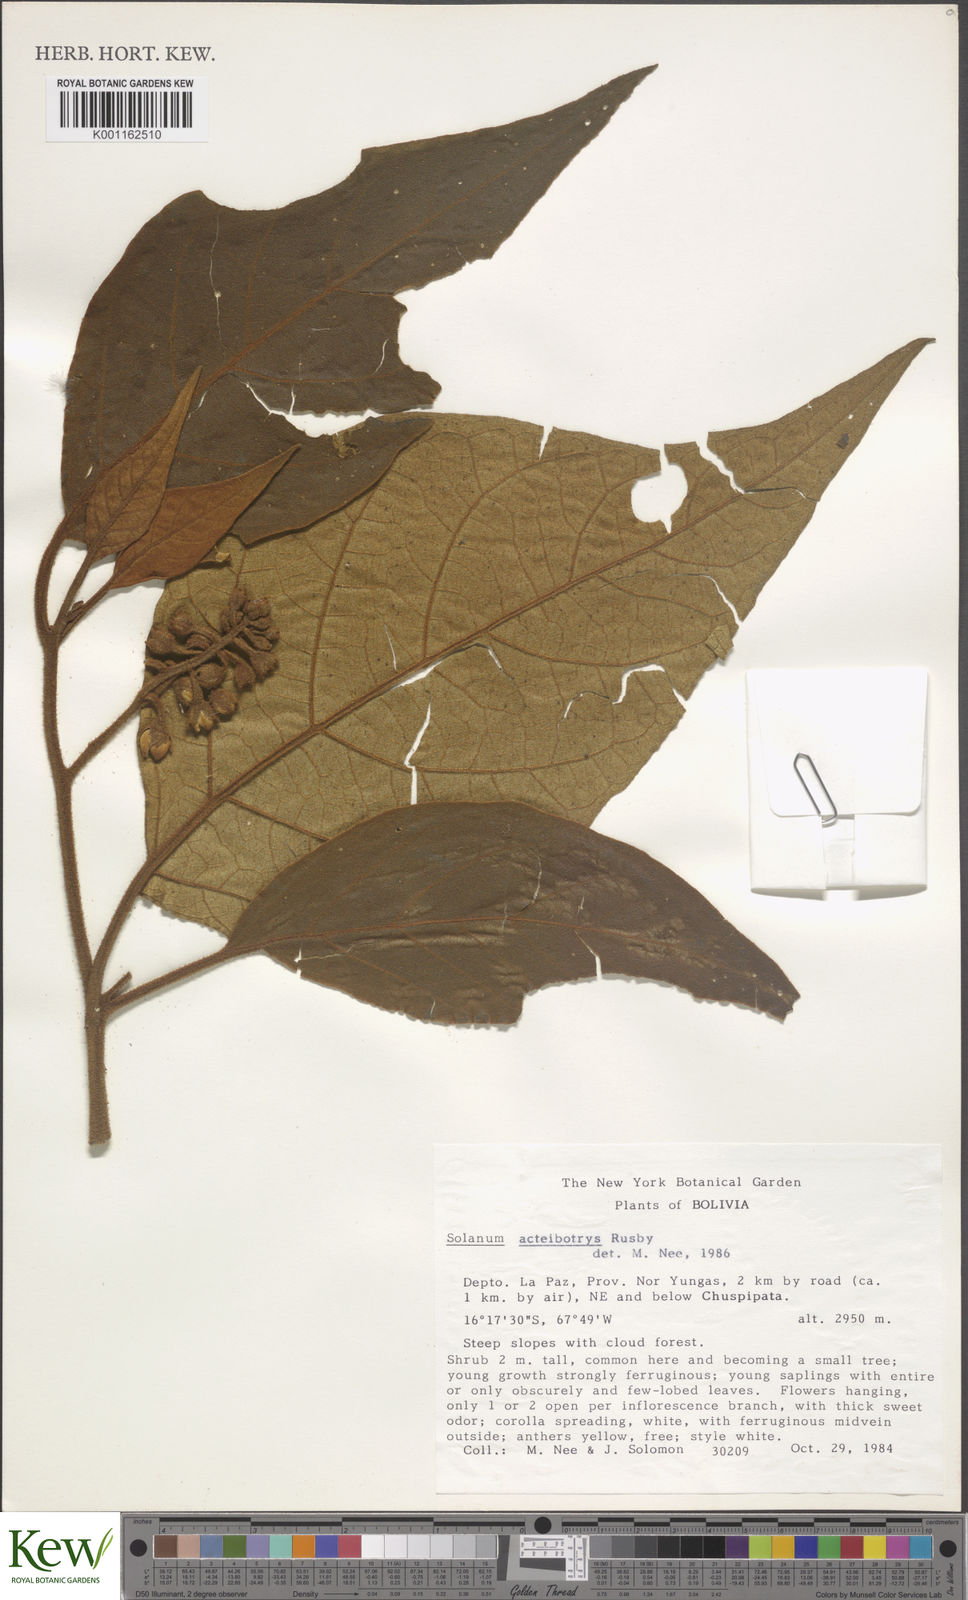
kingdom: Plantae
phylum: Tracheophyta
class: Magnoliopsida
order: Solanales
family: Solanaceae
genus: Solanum
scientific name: Solanum
